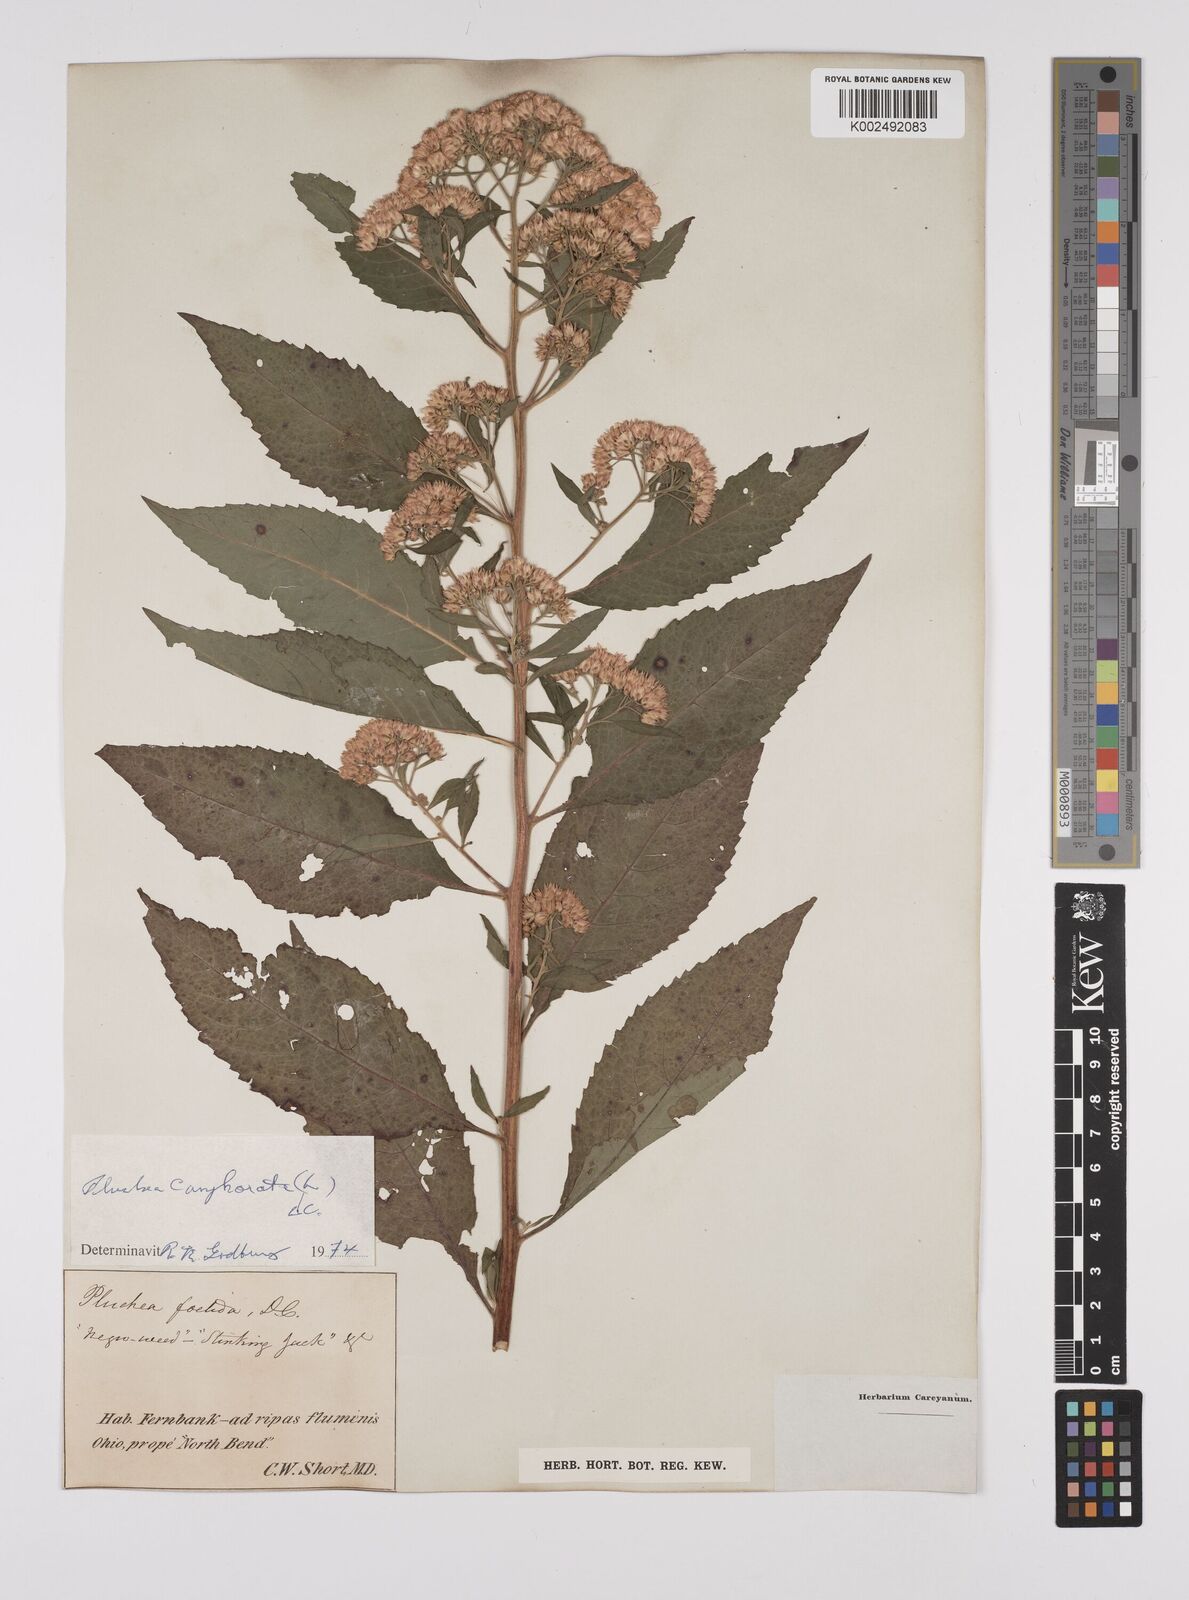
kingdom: Plantae
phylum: Tracheophyta
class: Magnoliopsida
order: Asterales
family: Asteraceae
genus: Pluchea
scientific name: Pluchea camphorata
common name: Camphor pluchea
